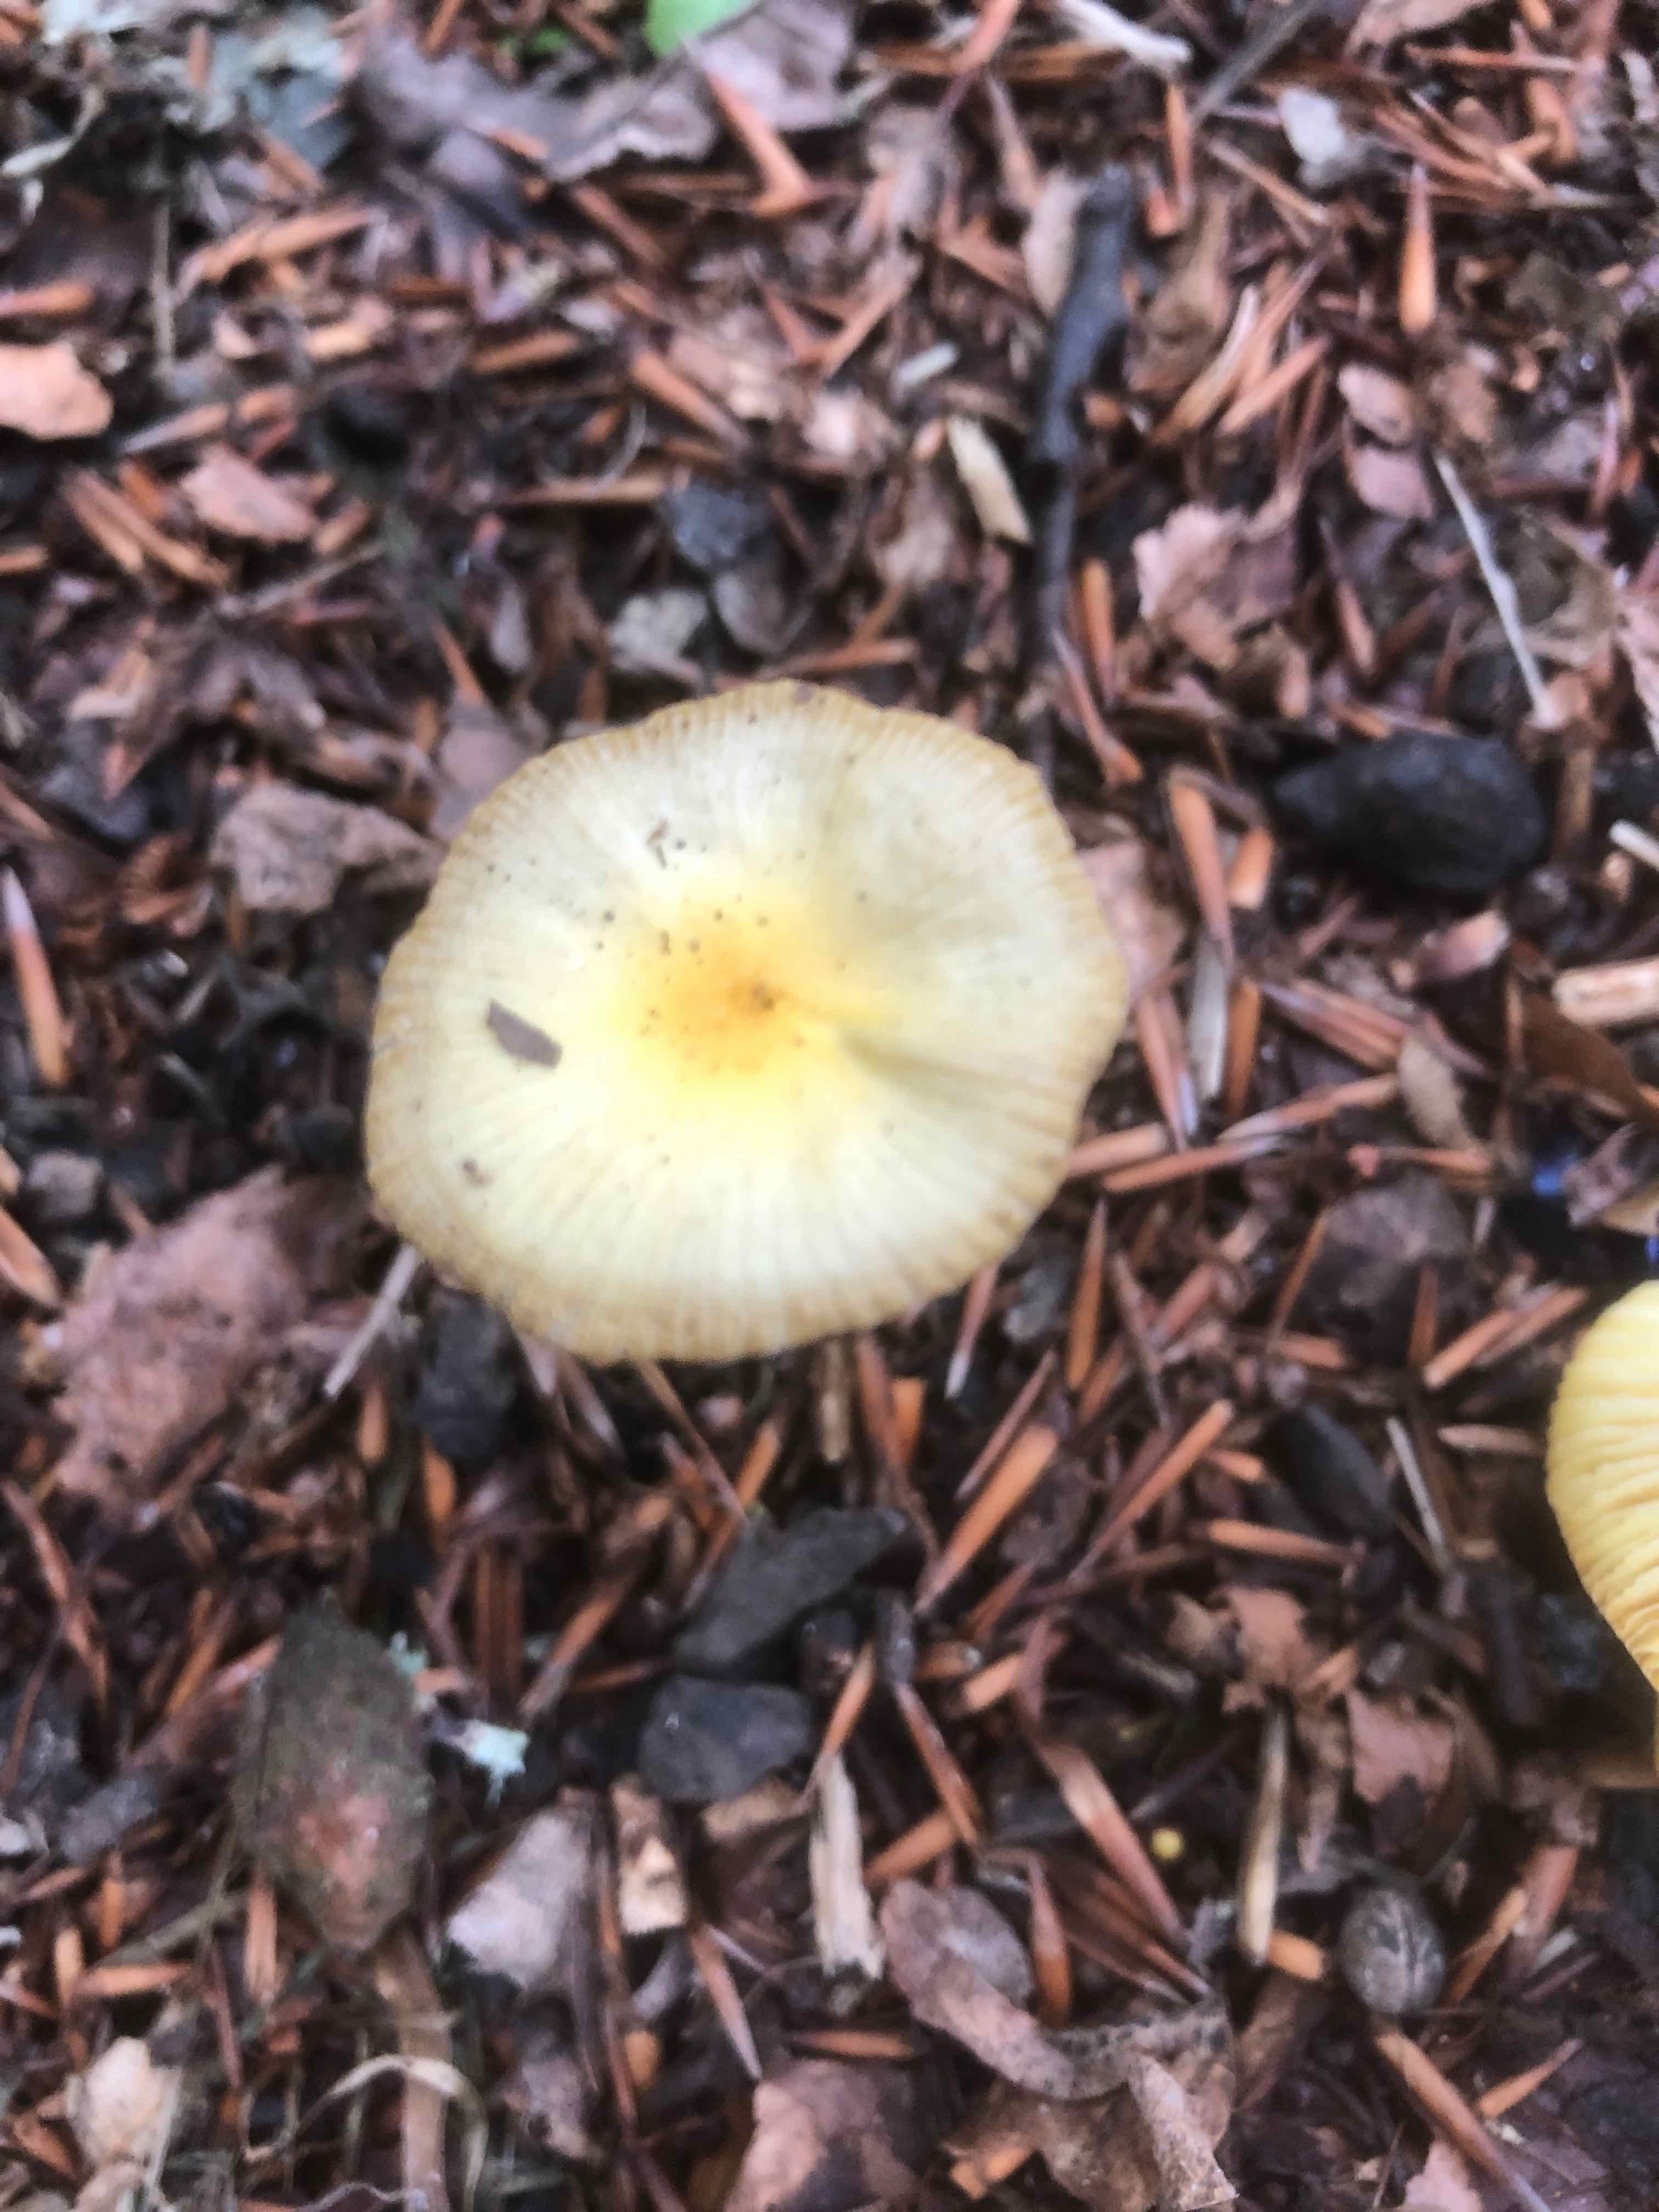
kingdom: Fungi
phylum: Basidiomycota
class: Agaricomycetes
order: Agaricales
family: Bolbitiaceae
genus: Bolbitius
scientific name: Bolbitius titubans
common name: almindelig gulhat
